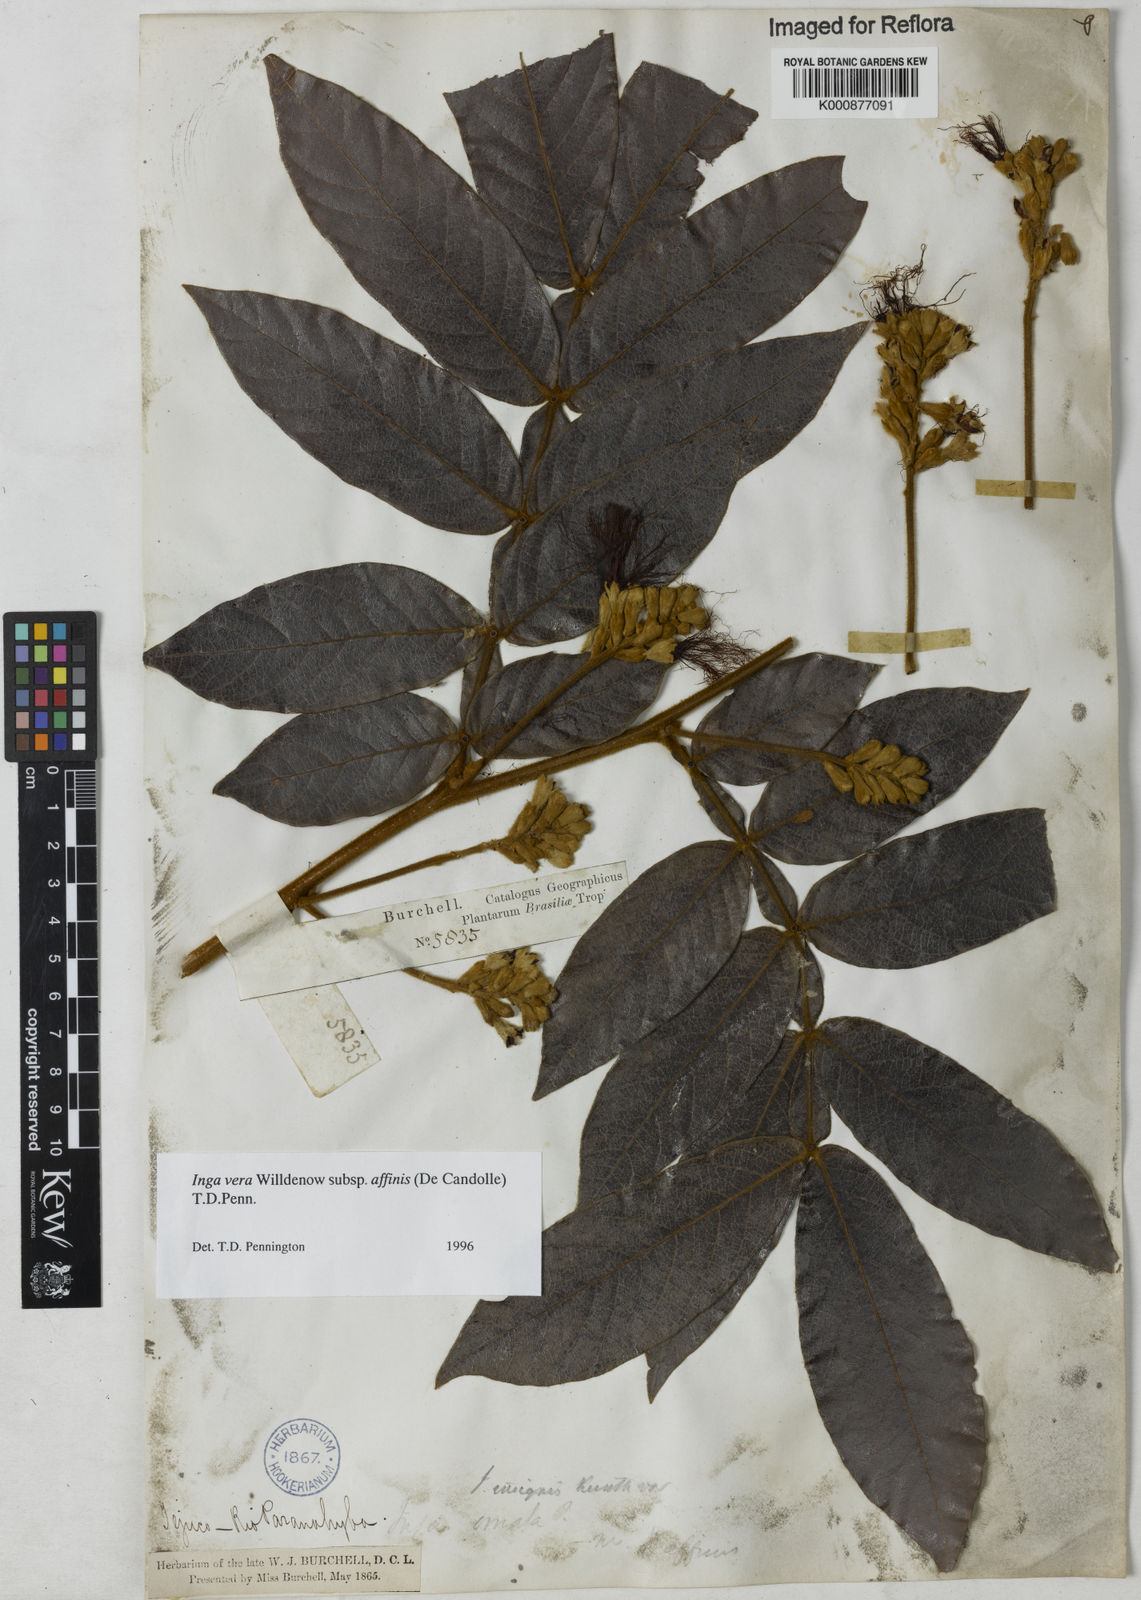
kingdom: Plantae
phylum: Tracheophyta
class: Magnoliopsida
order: Fabales
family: Fabaceae
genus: Inga
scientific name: Inga affinis
